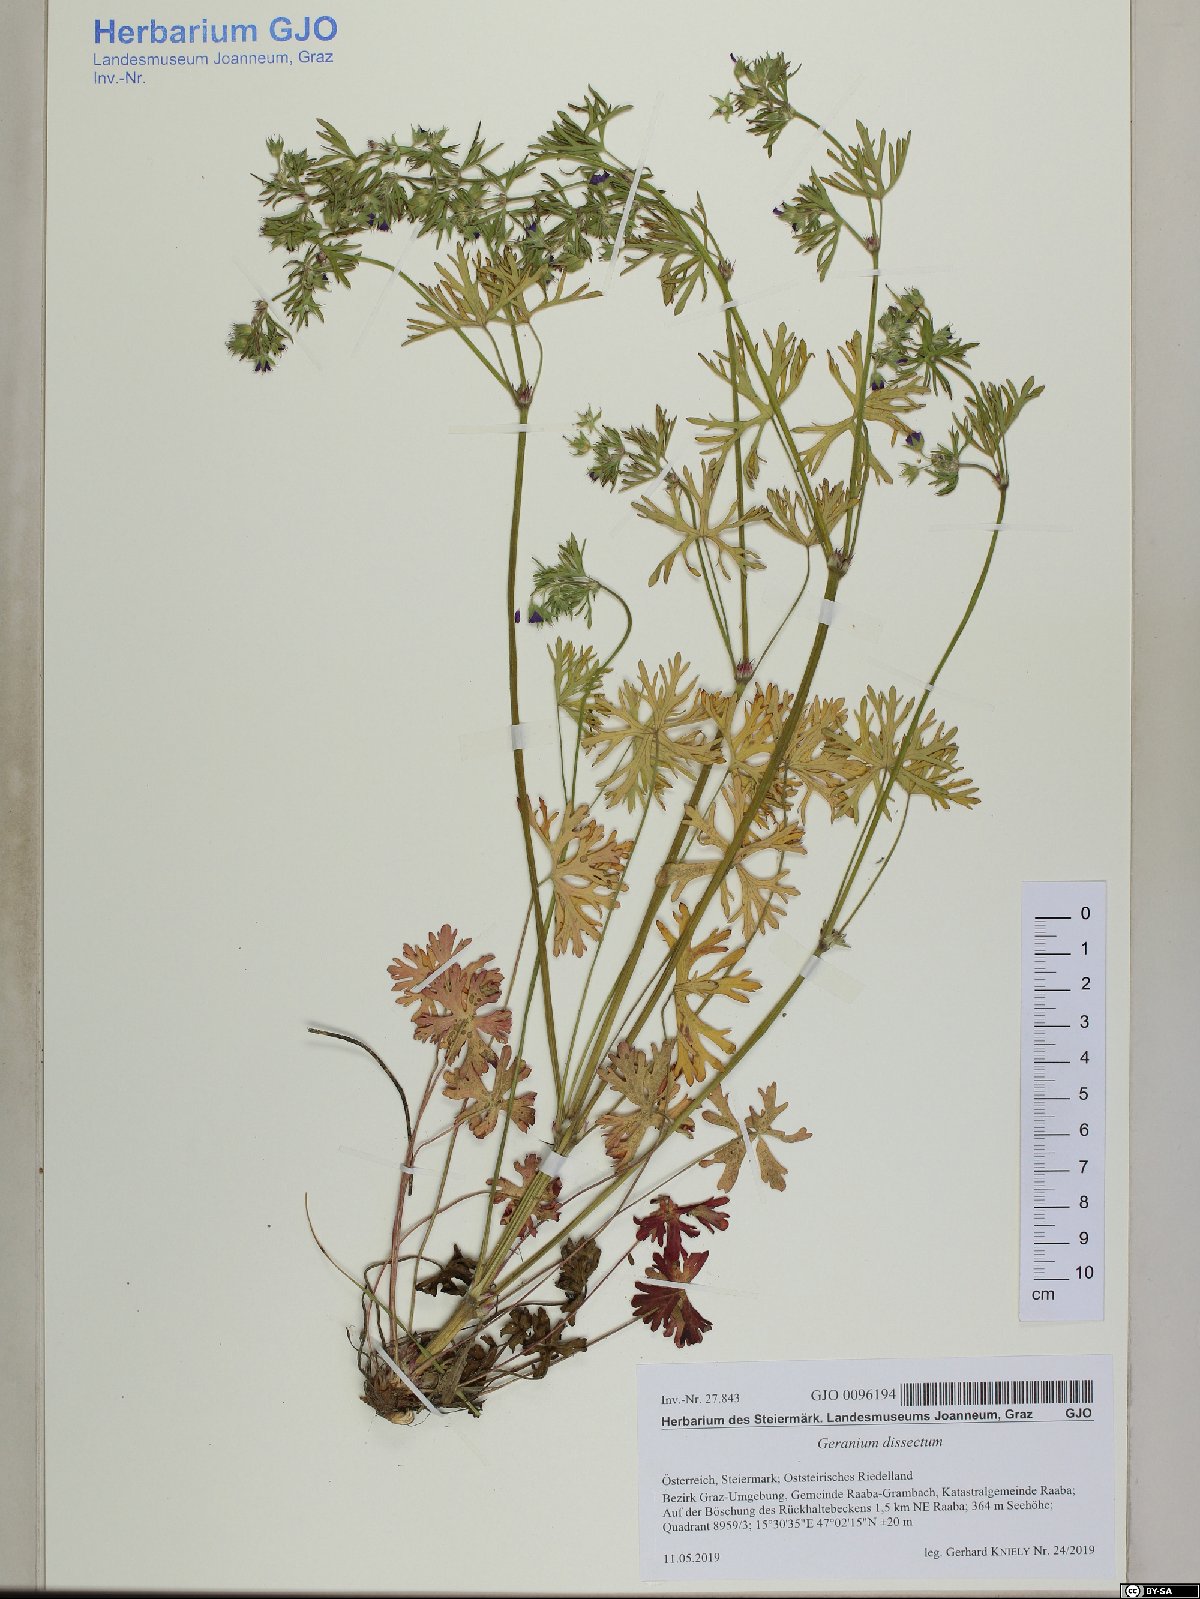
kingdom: Plantae
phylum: Tracheophyta
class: Magnoliopsida
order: Geraniales
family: Geraniaceae
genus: Geranium
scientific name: Geranium dissectum
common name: Cut-leaved crane's-bill
